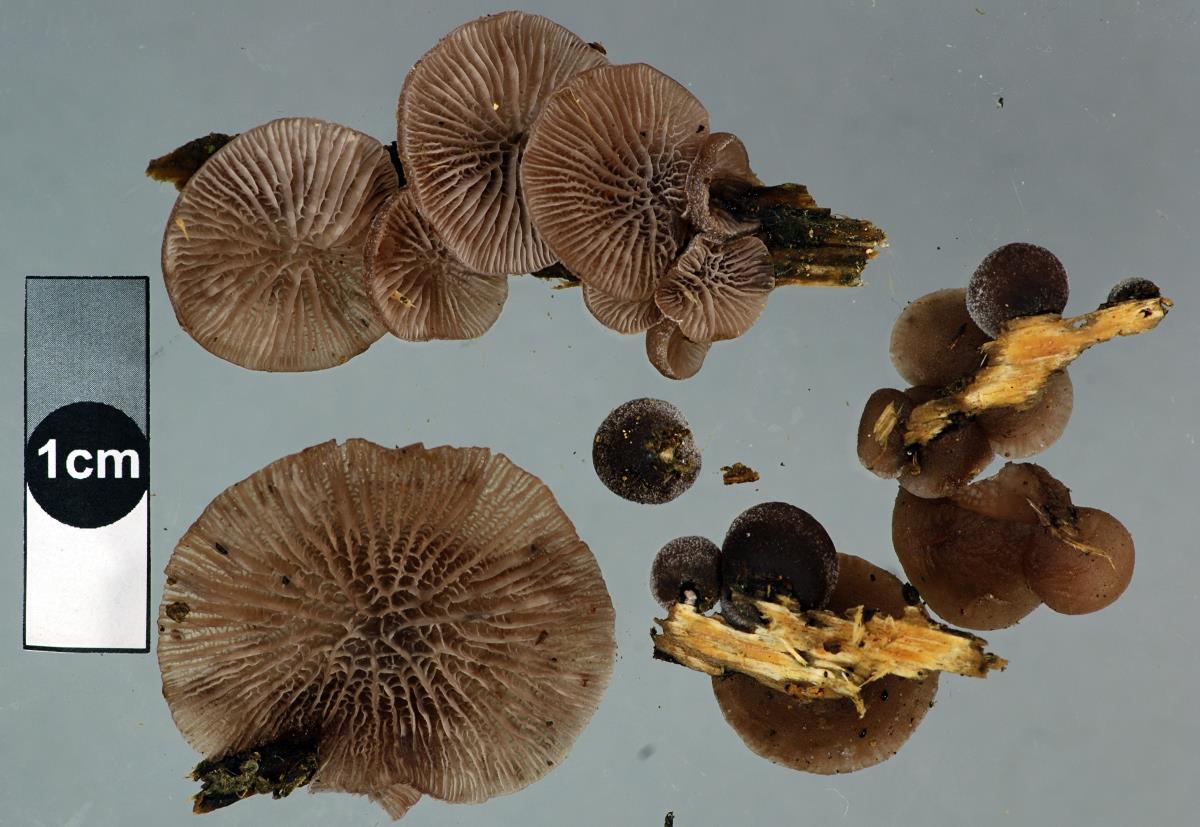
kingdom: Fungi
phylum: Basidiomycota
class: Agaricomycetes
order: Agaricales
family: Pleurotaceae
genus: Resupinatus
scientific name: Resupinatus vinosolividus
